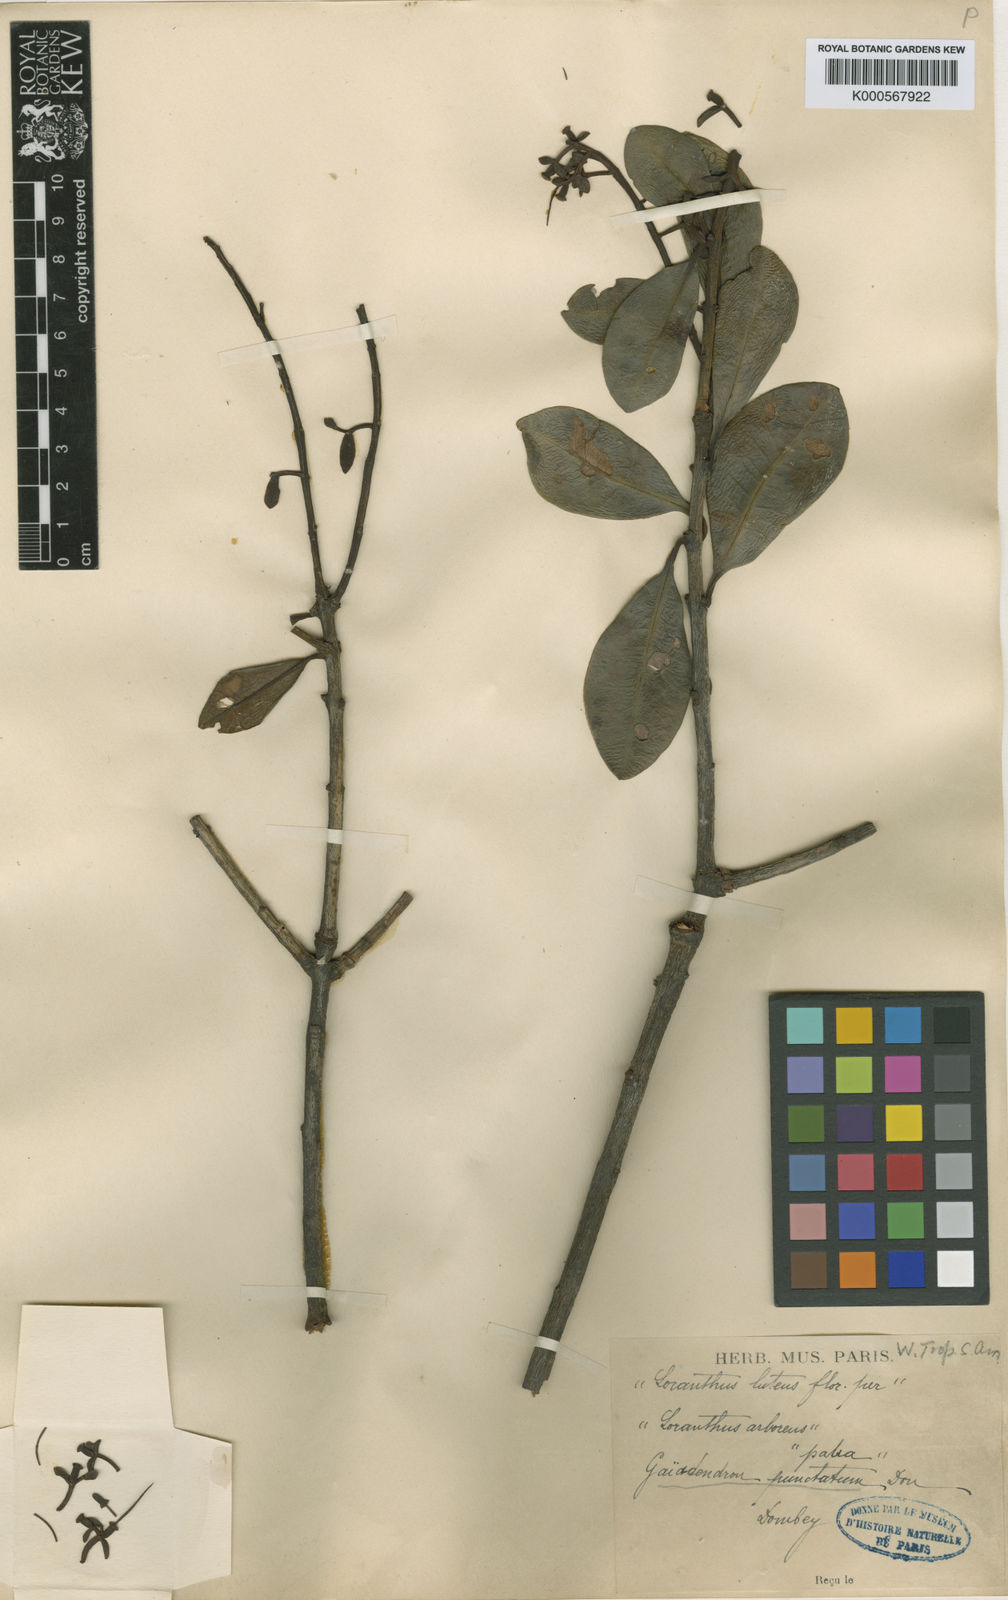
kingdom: Plantae
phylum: Tracheophyta
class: Magnoliopsida
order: Santalales
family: Loranthaceae
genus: Gaiadendron
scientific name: Gaiadendron punctatum
